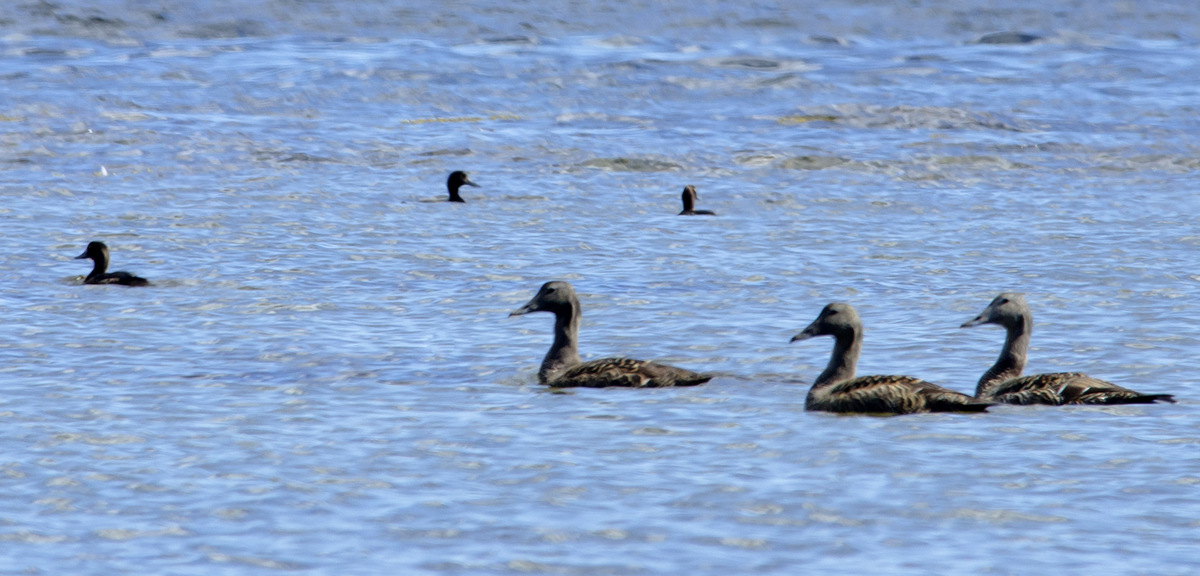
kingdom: Animalia
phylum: Chordata
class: Aves
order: Anseriformes
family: Anatidae
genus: Somateria
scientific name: Somateria mollissima
